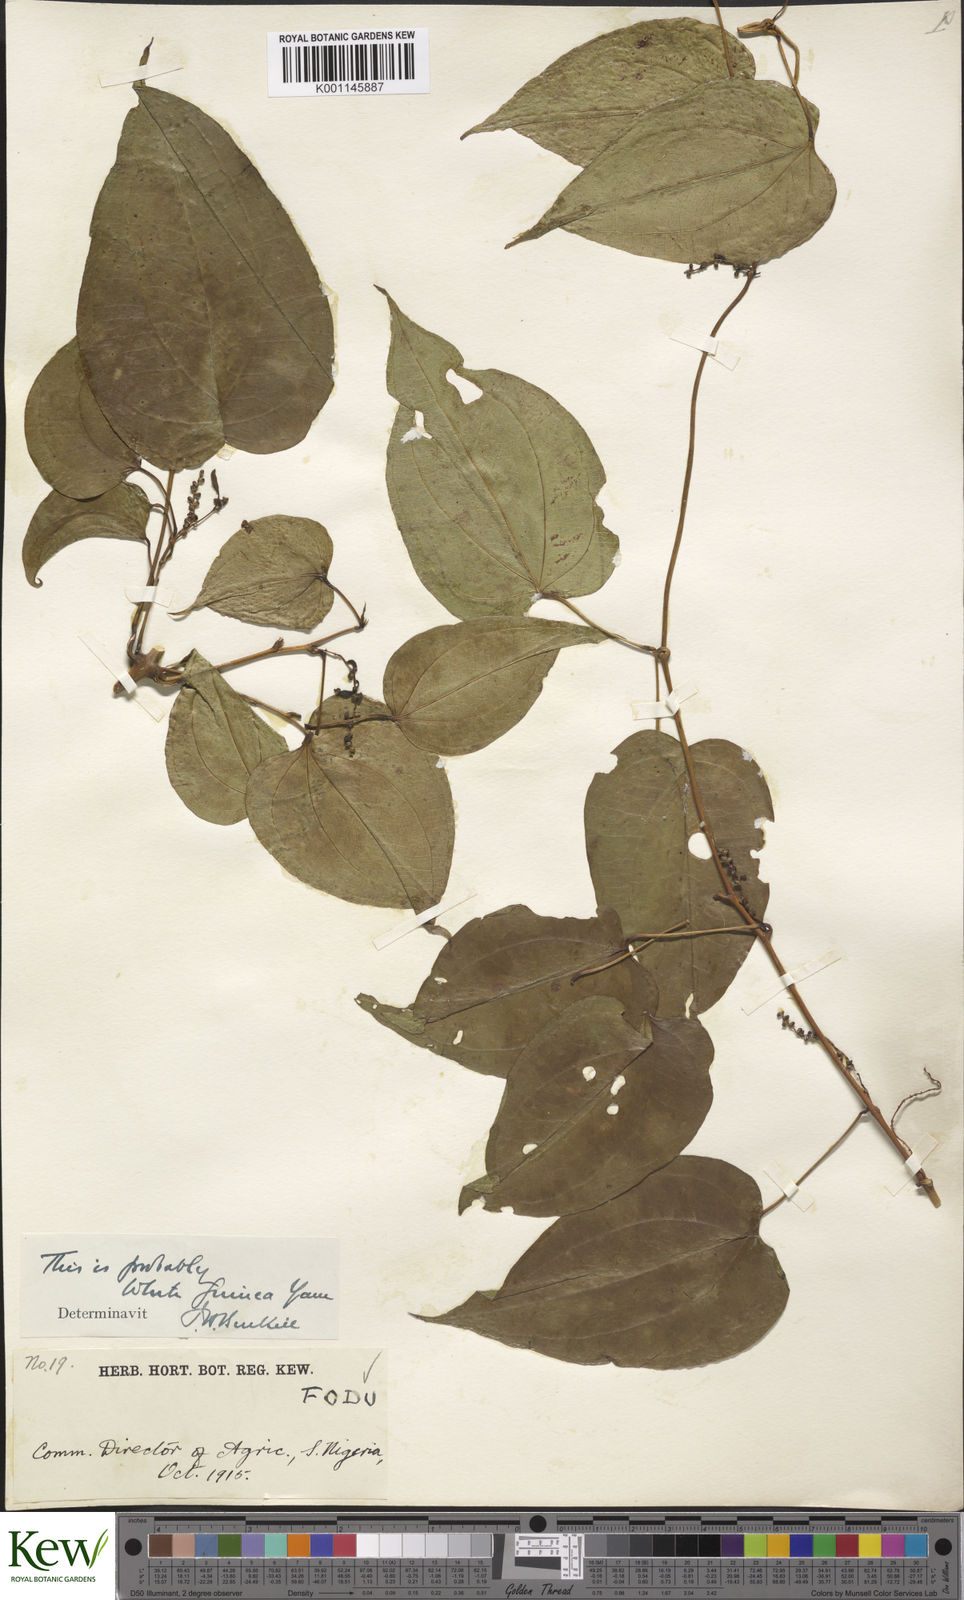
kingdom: Plantae
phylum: Tracheophyta
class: Liliopsida
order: Dioscoreales
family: Dioscoreaceae
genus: Dioscorea
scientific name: Dioscorea cayenensis
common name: Attoto yam
